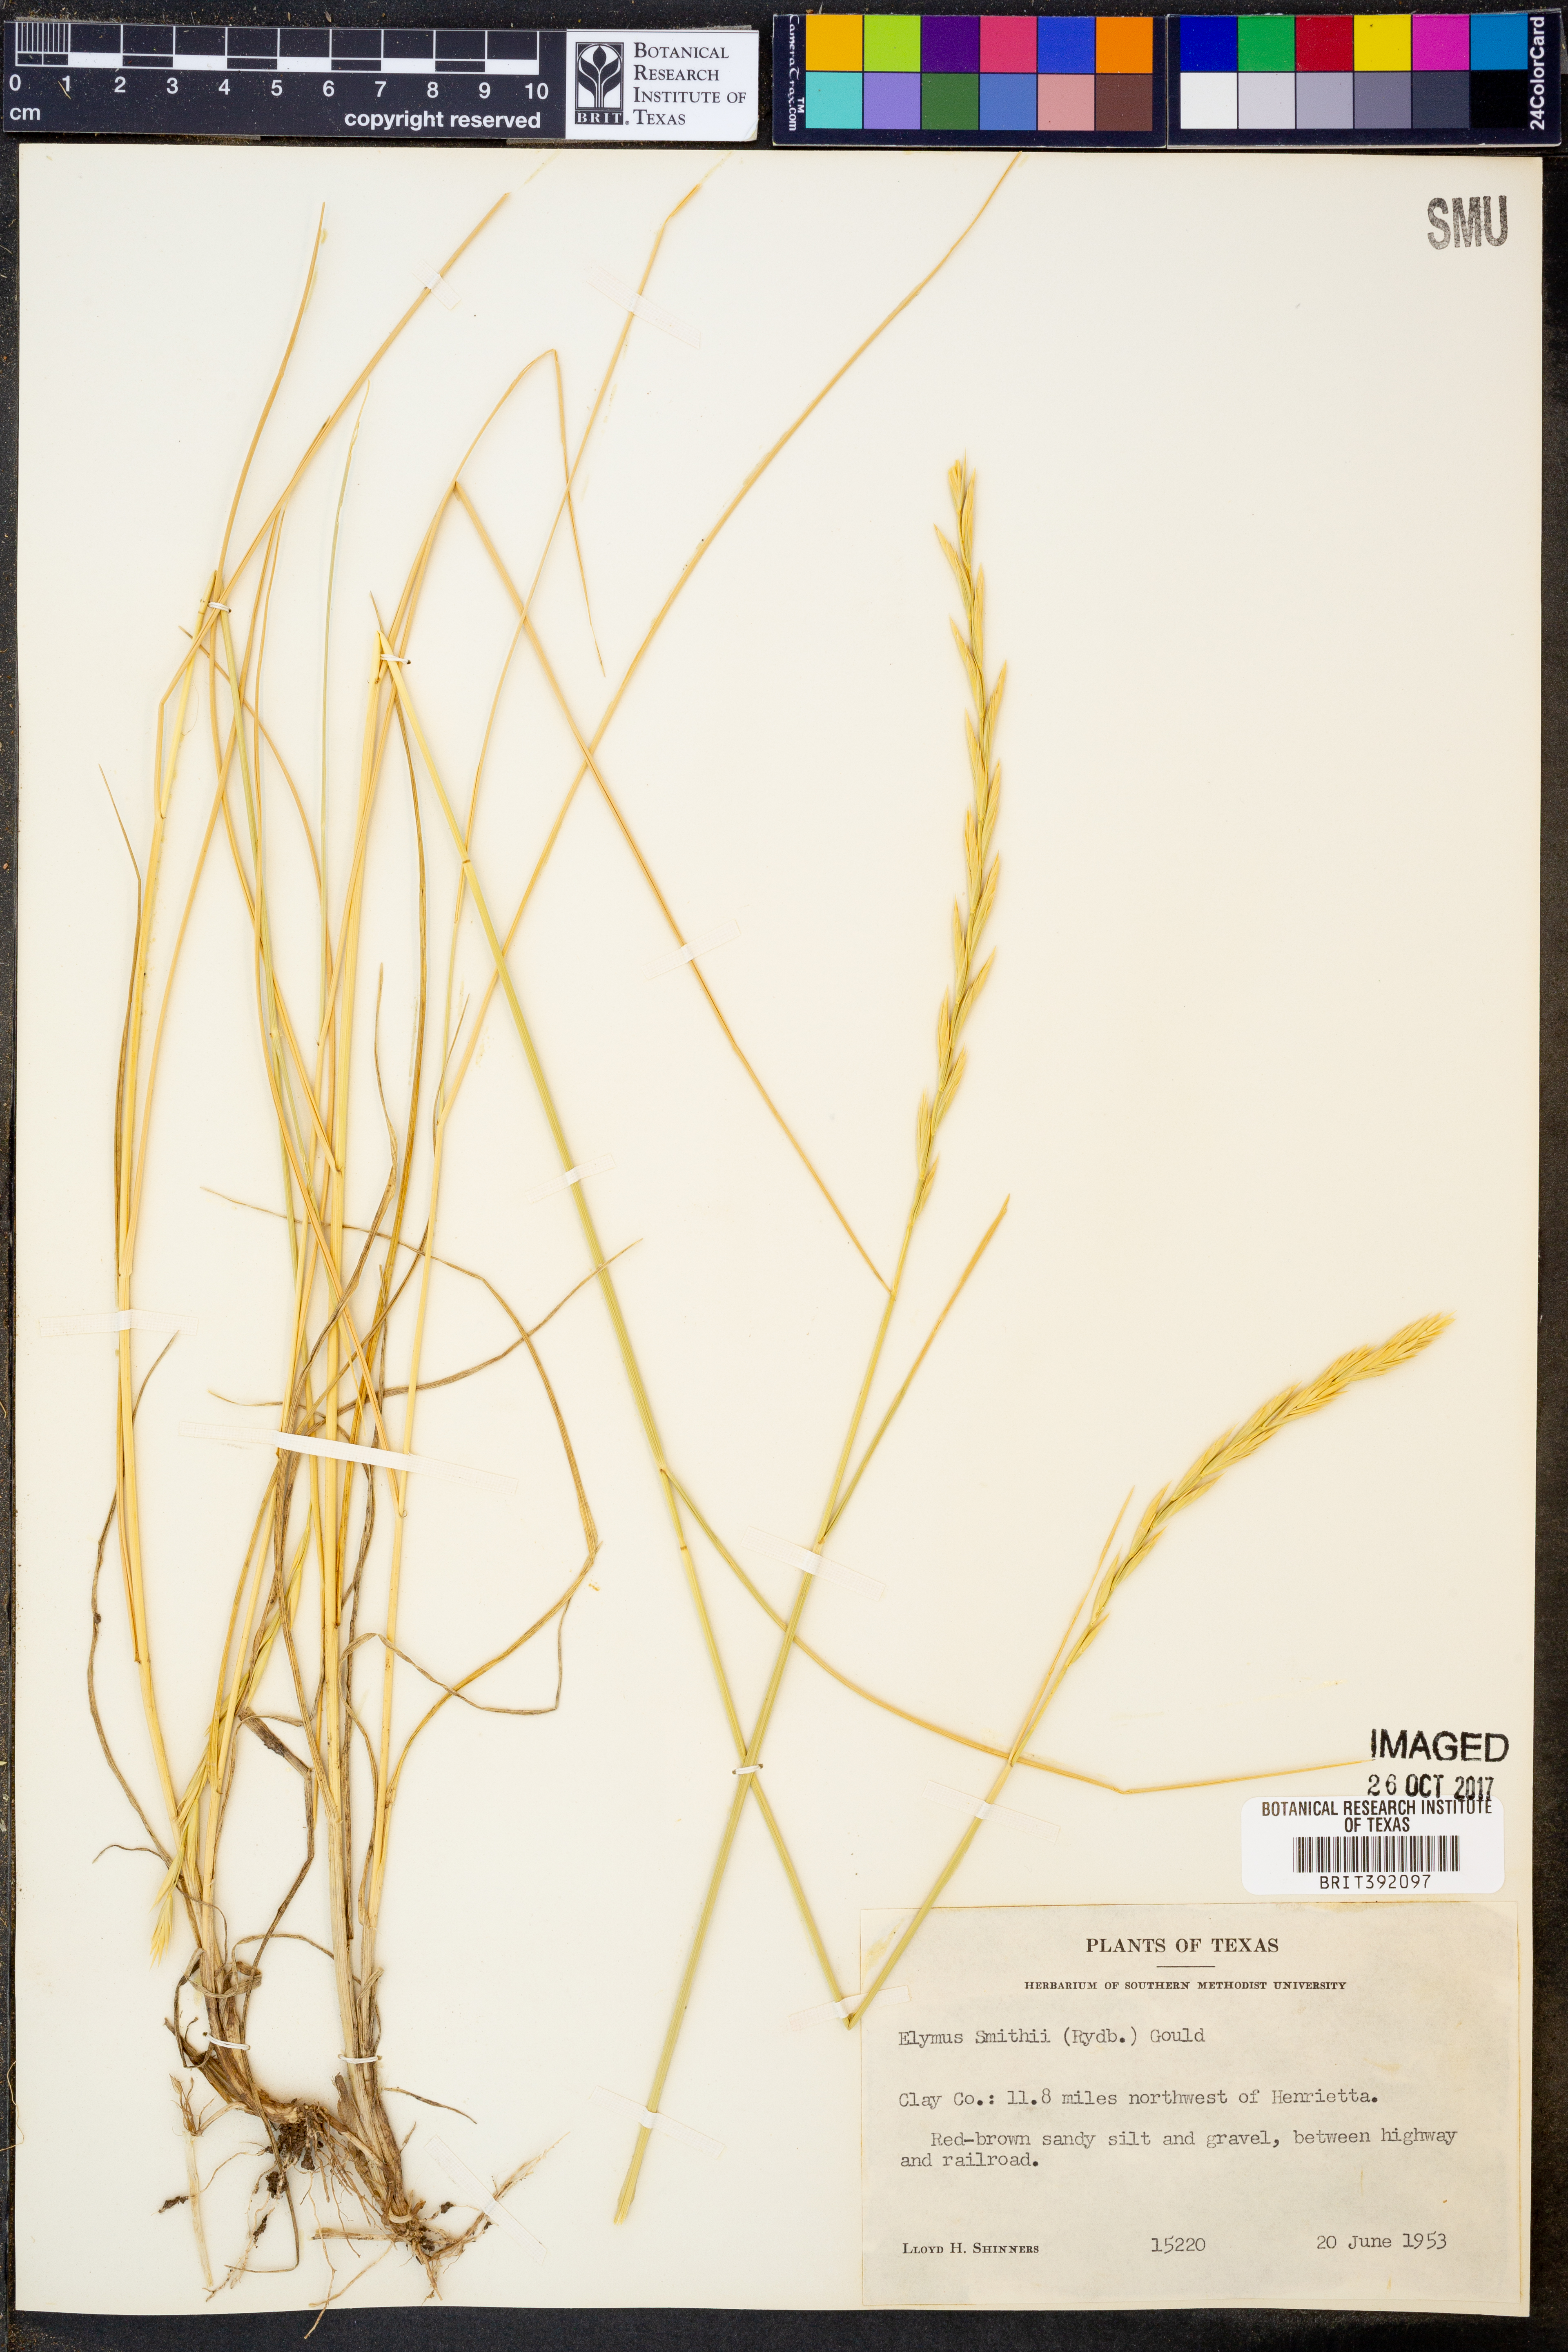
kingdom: Plantae
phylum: Tracheophyta
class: Liliopsida
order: Poales
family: Poaceae
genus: Elymus
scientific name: Elymus smithii
